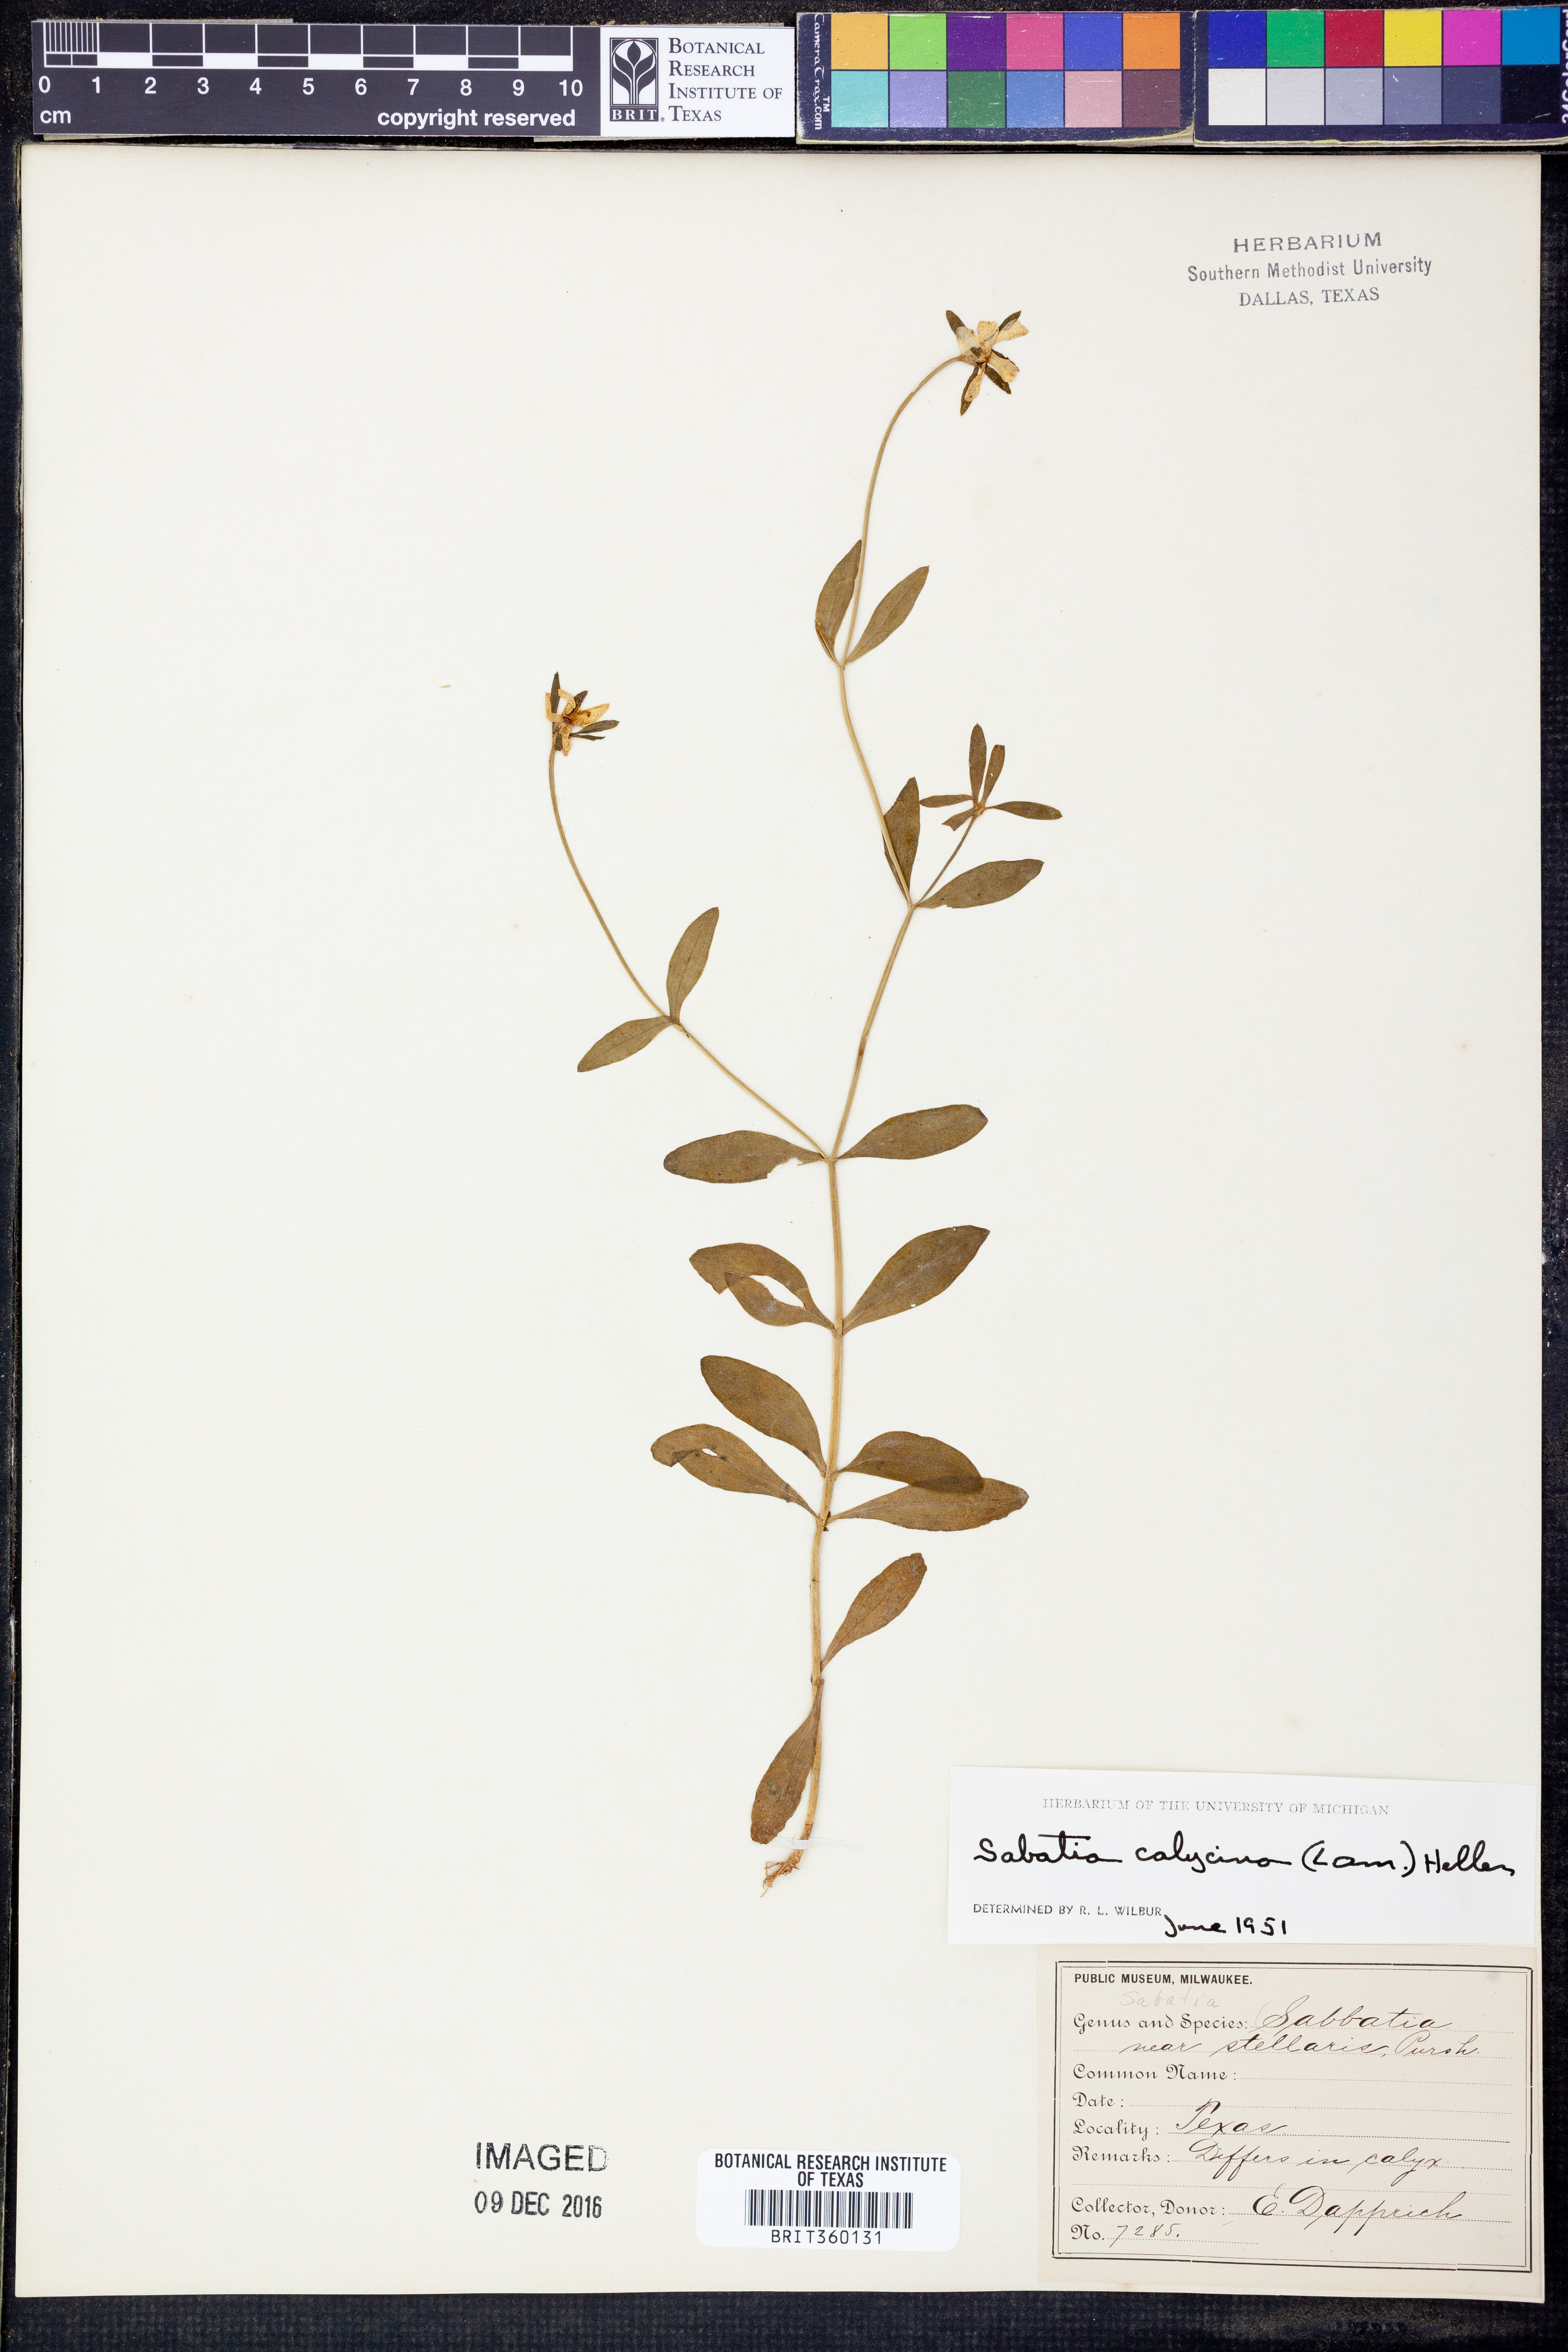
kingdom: Plantae
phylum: Tracheophyta
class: Magnoliopsida
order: Gentianales
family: Gentianaceae
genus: Sabatia
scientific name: Sabatia calycina
